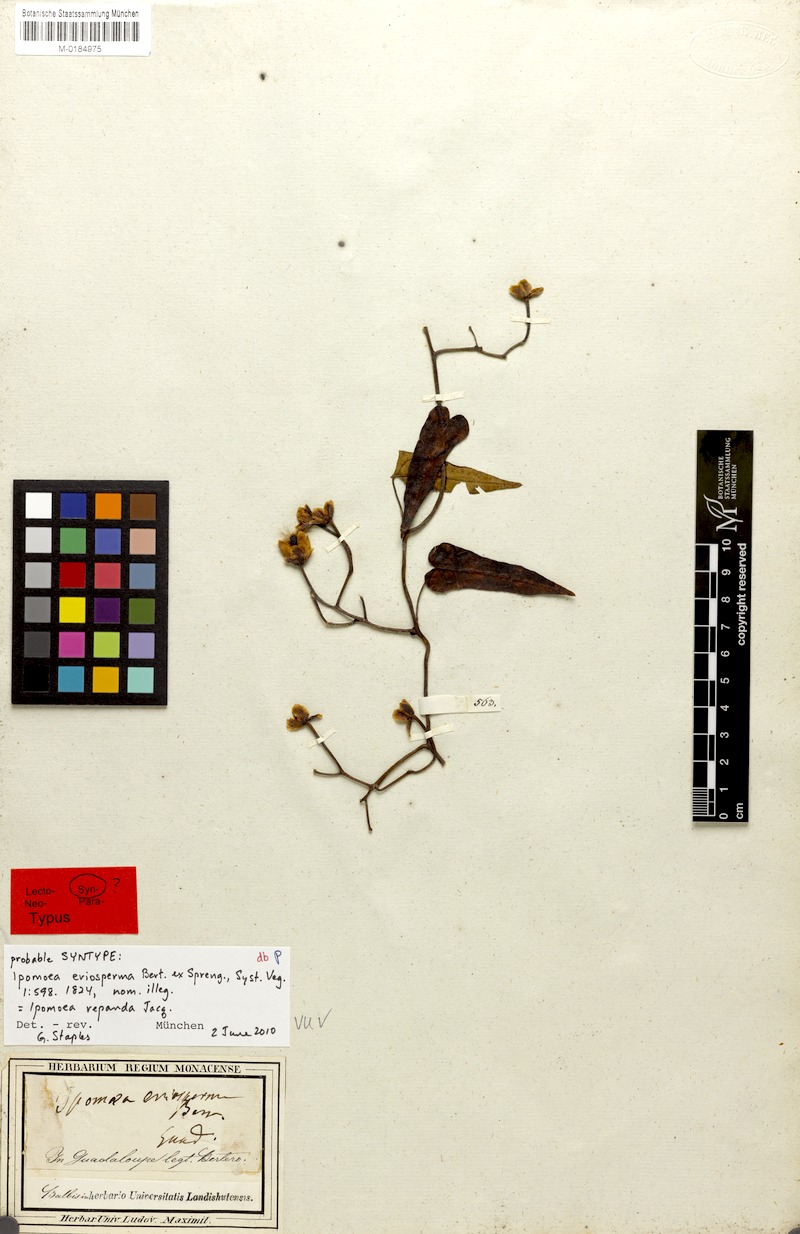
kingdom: Plantae
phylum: Tracheophyta
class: Magnoliopsida
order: Solanales
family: Convolvulaceae
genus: Ipomoea
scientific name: Ipomoea repanda
